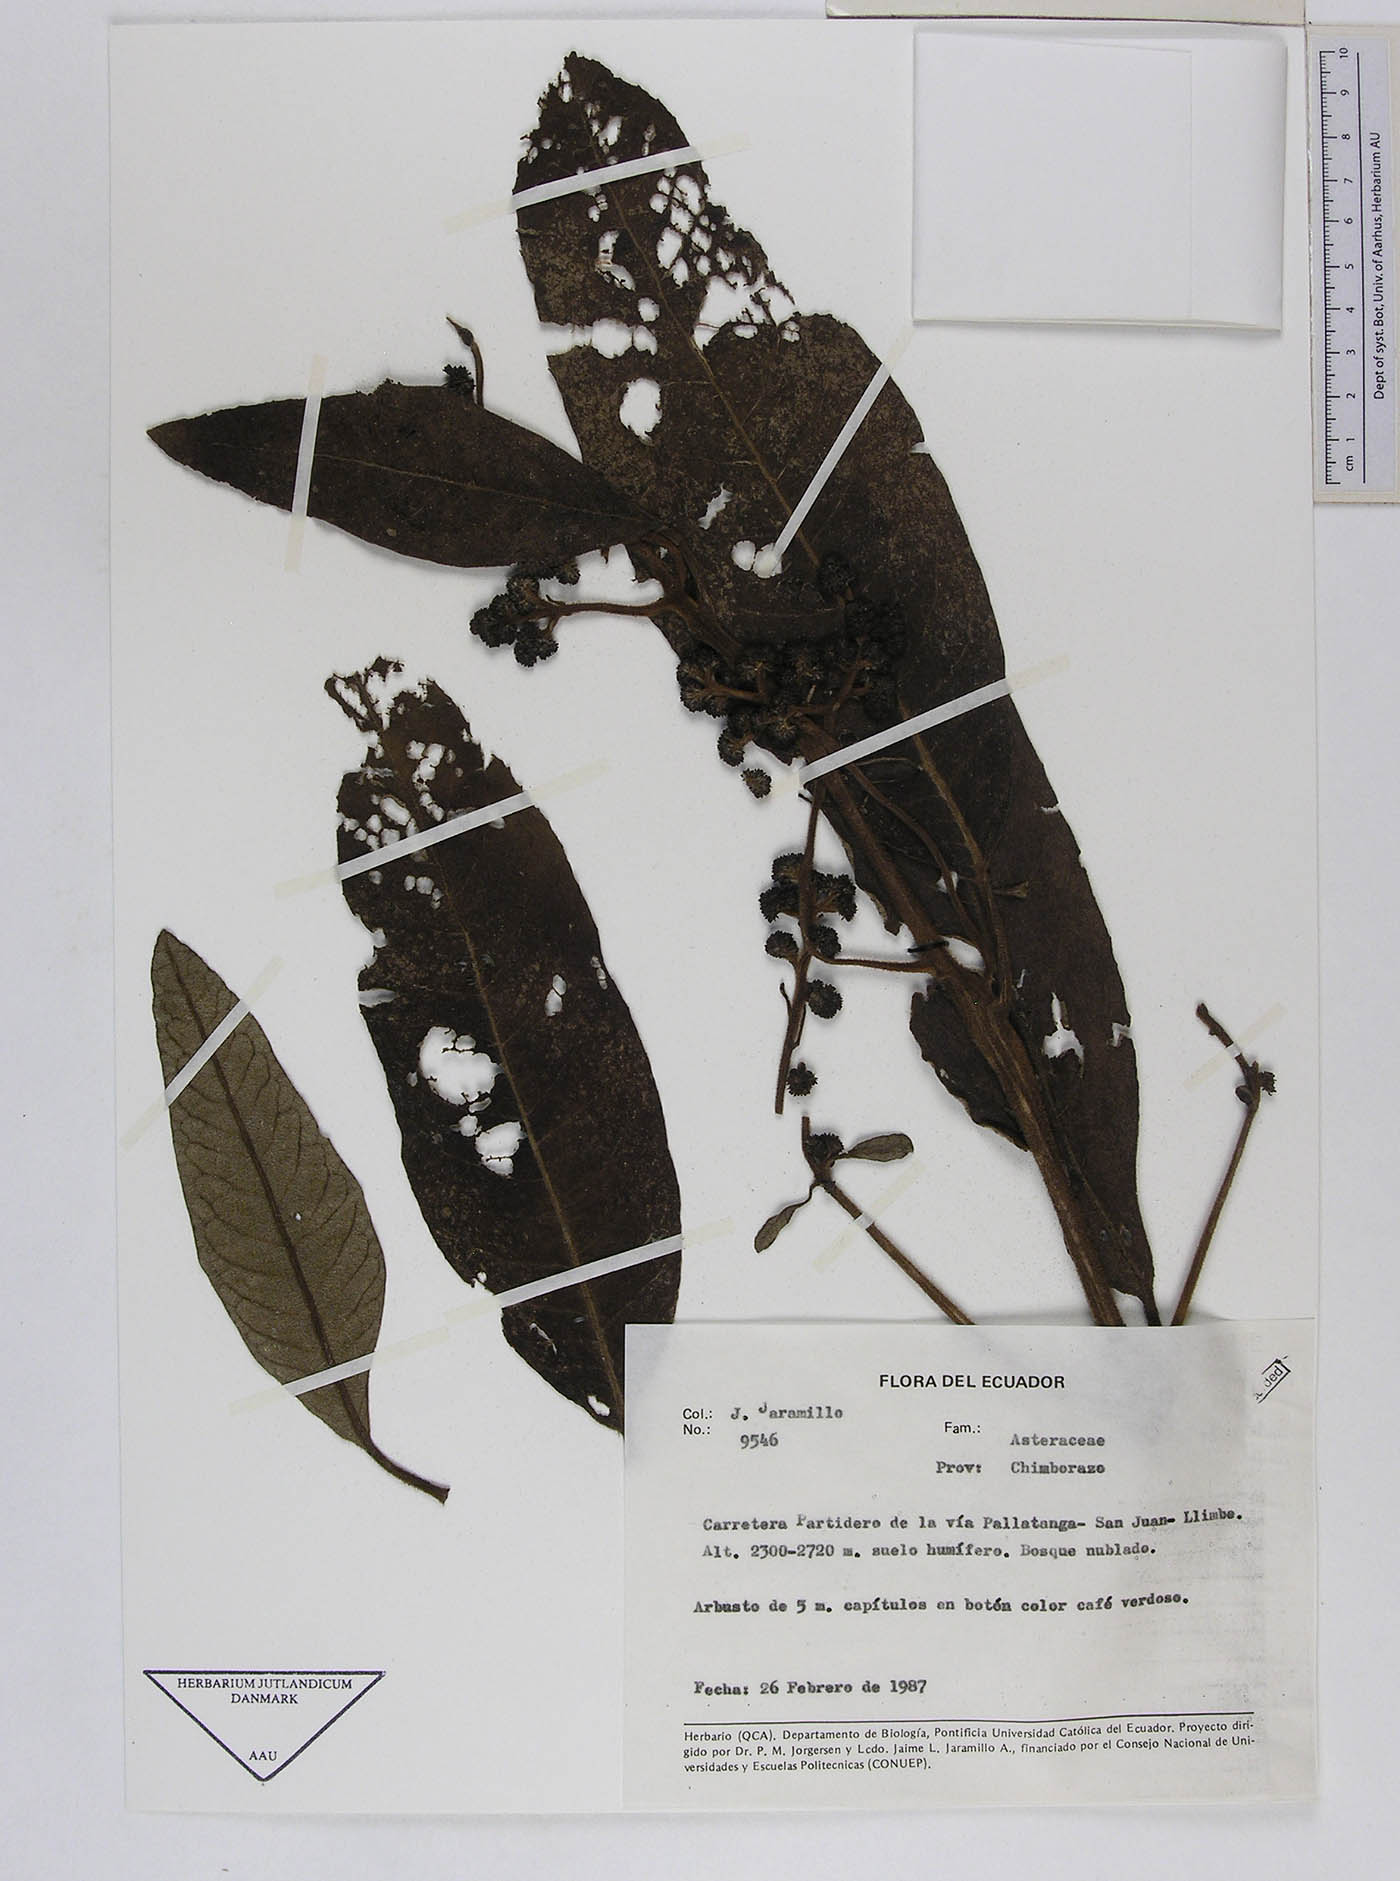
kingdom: Plantae
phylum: Tracheophyta
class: Magnoliopsida
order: Asterales
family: Asteraceae
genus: Critoniopsis
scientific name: Critoniopsis palaciosii
